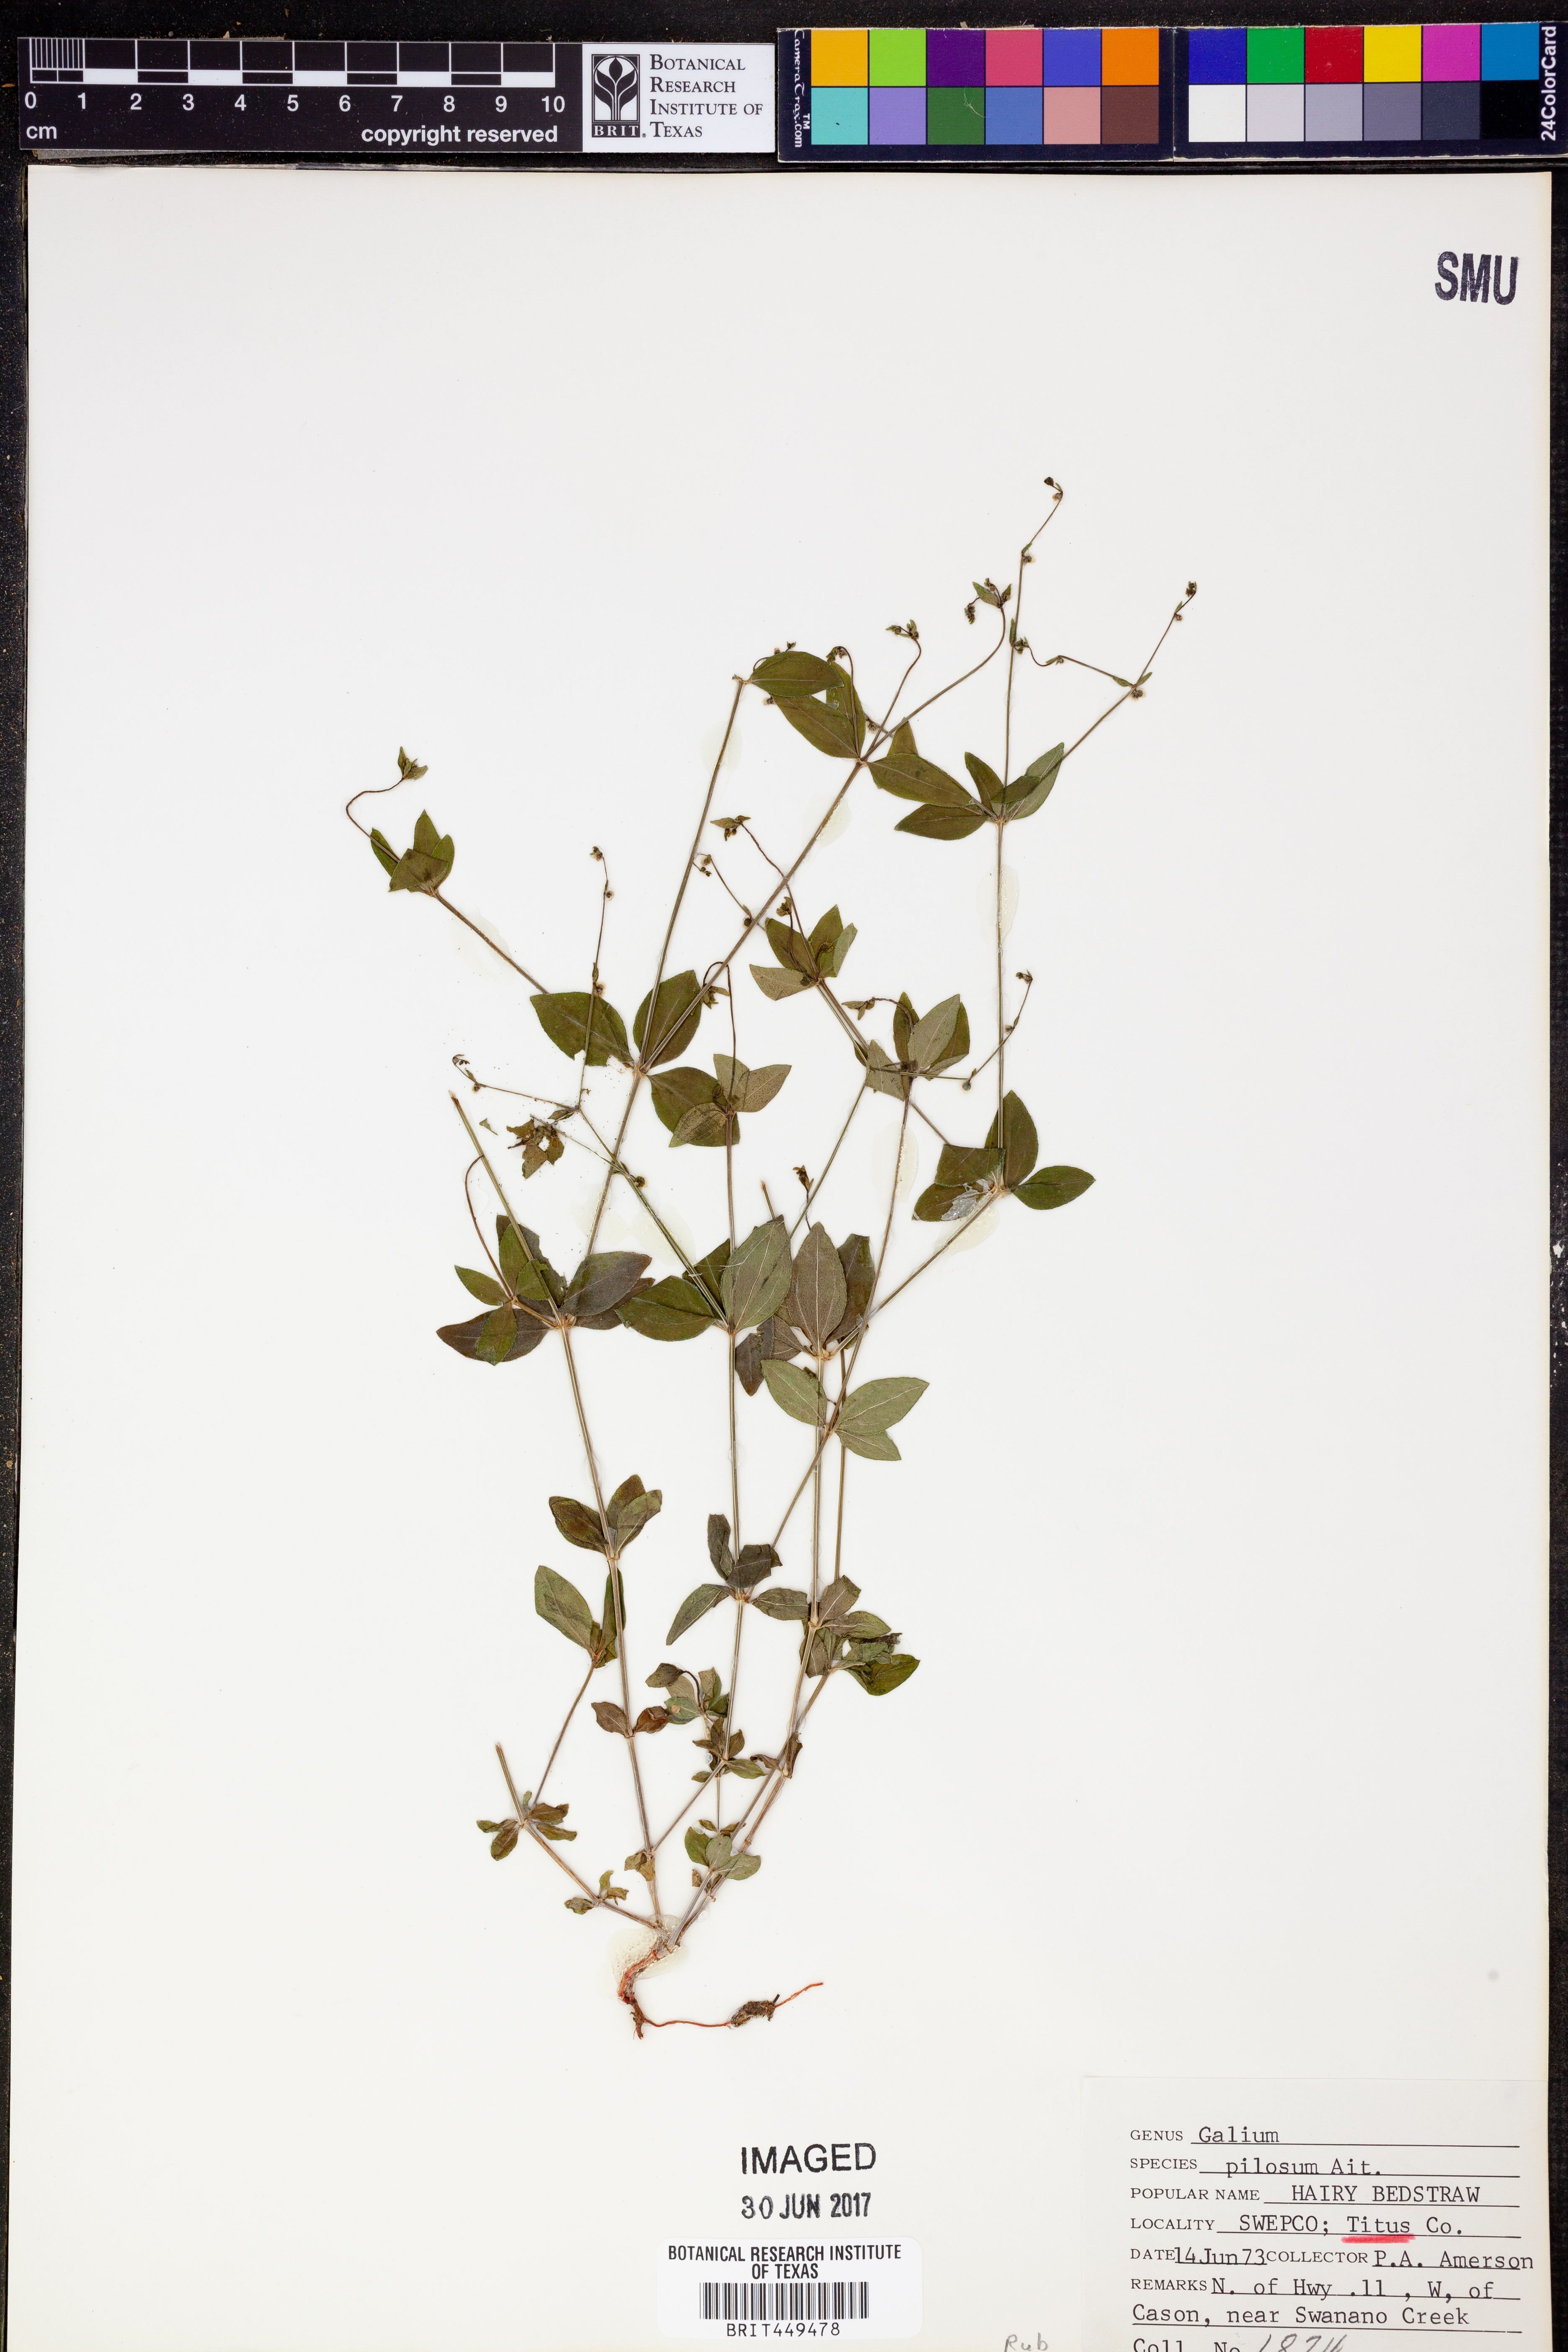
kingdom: Plantae
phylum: Tracheophyta
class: Magnoliopsida
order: Gentianales
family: Rubiaceae
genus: Galium
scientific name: Galium pilosum
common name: Hairy bedstraw
